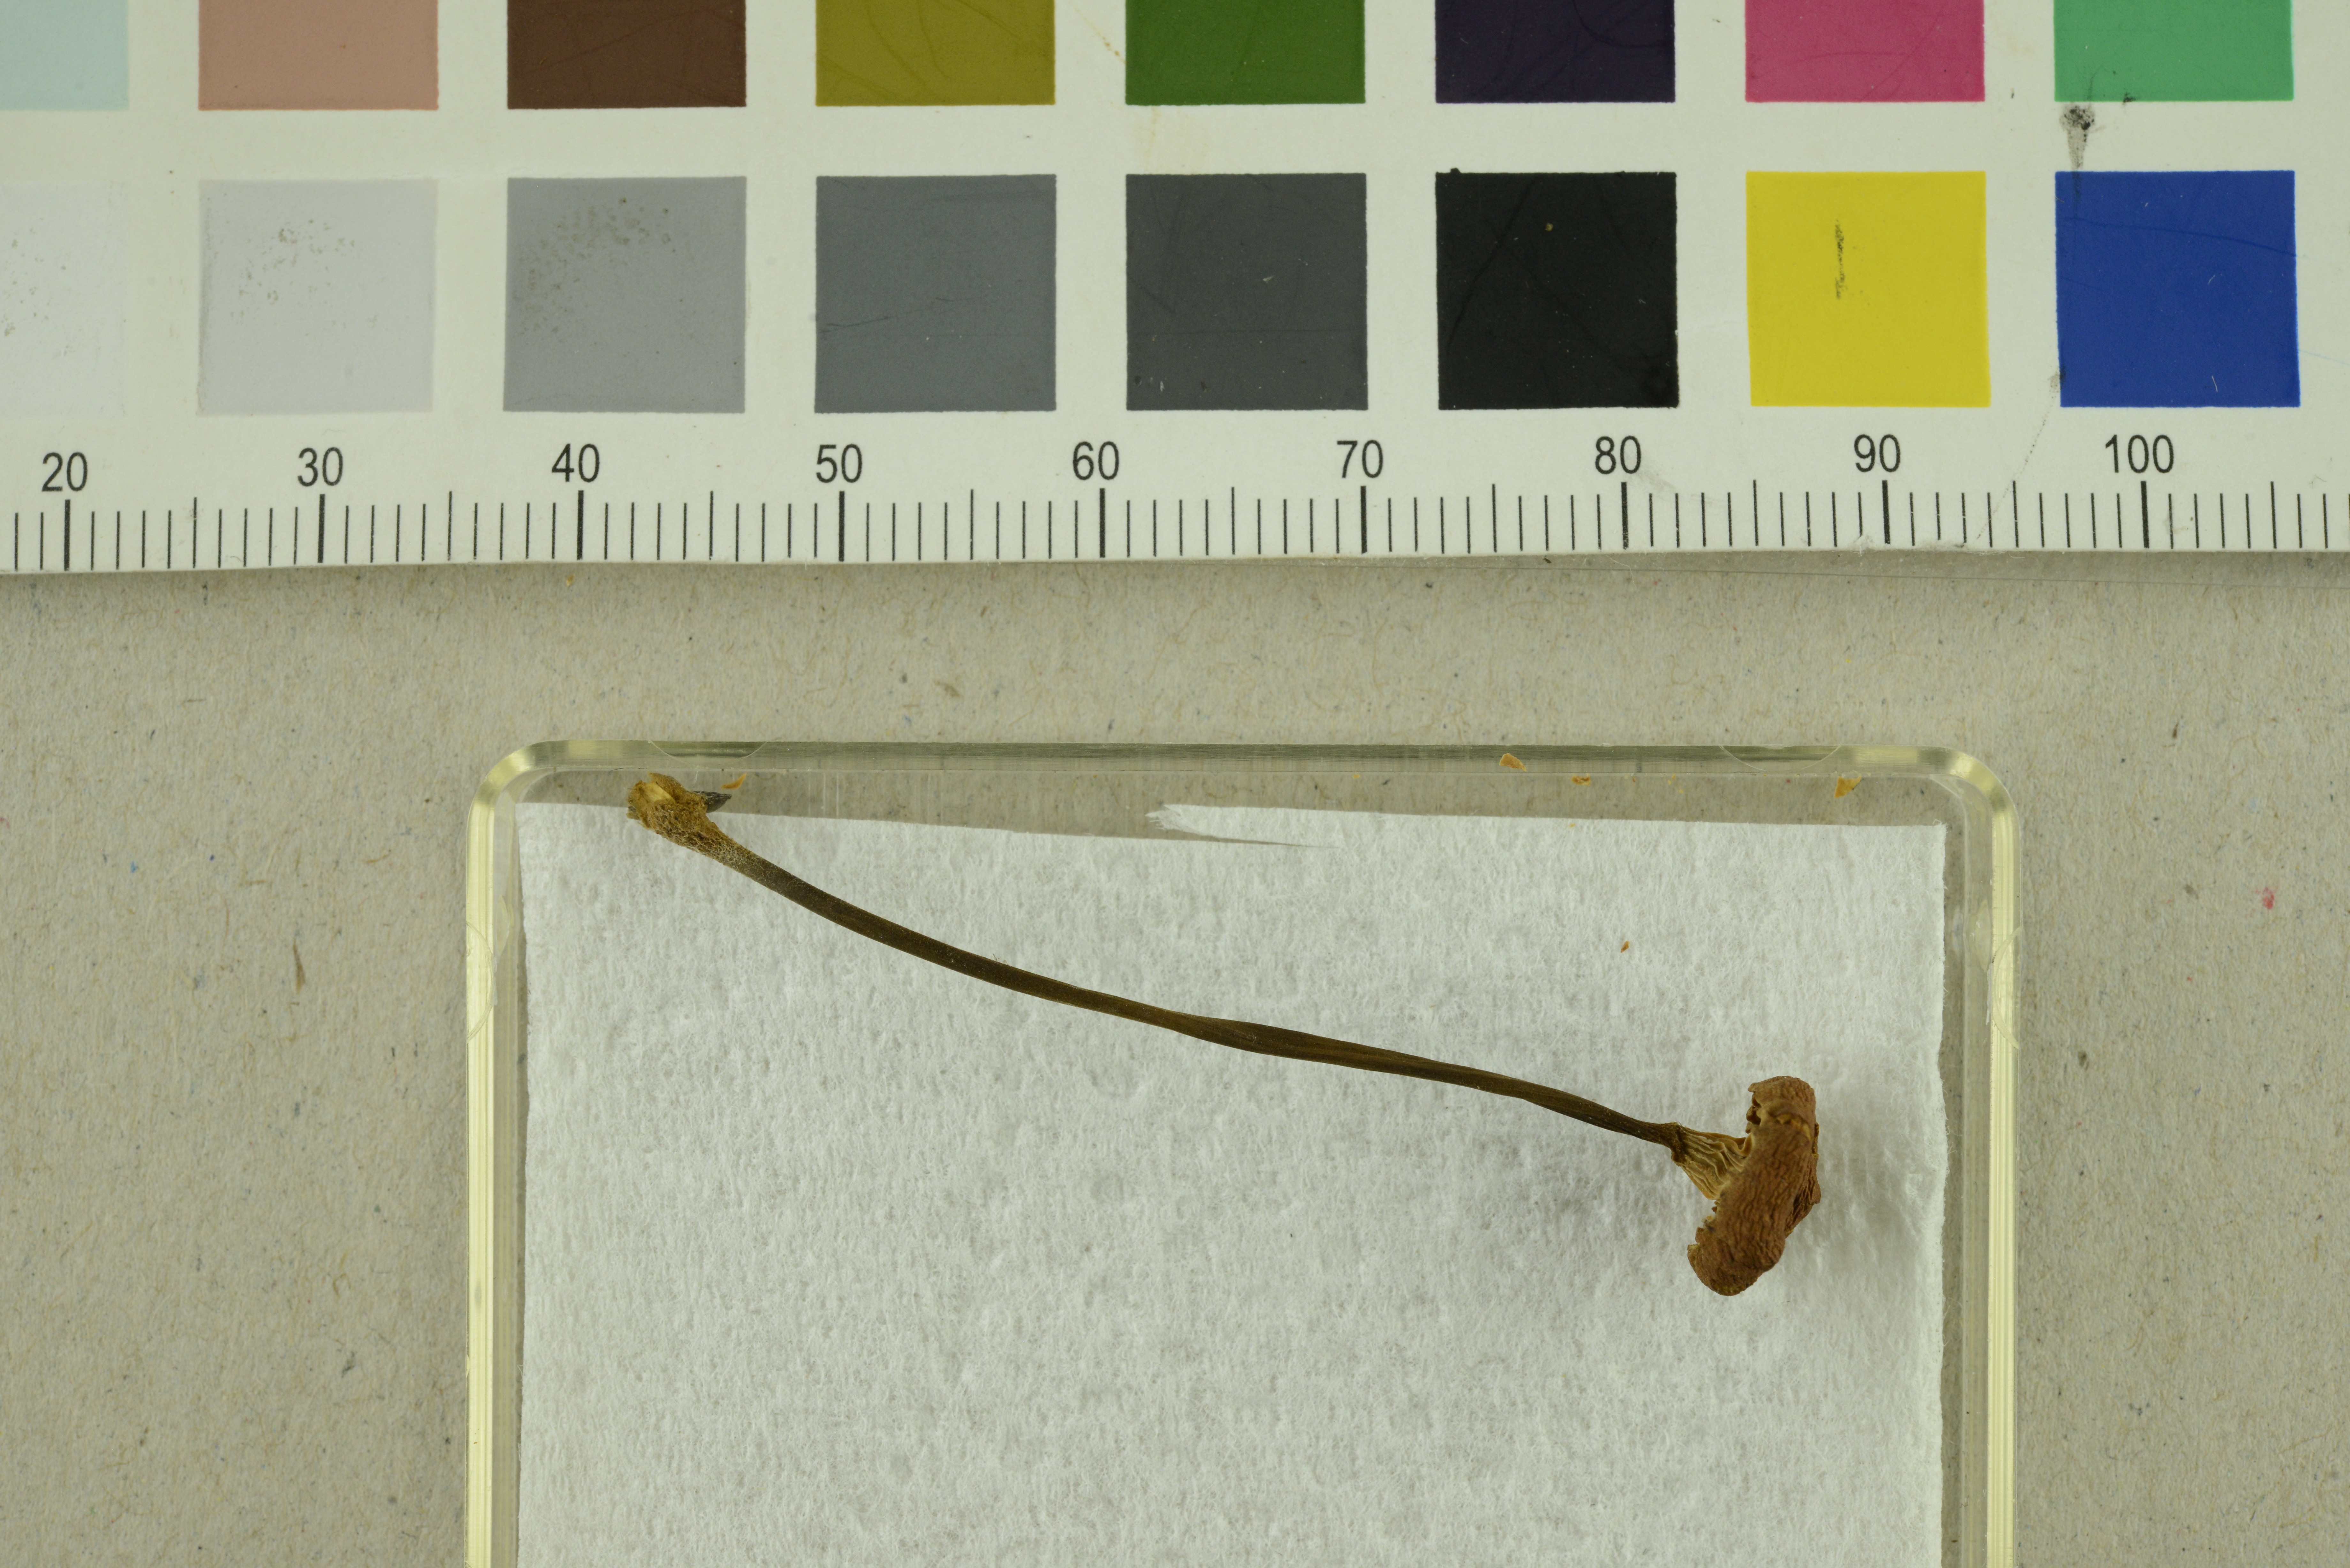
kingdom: Fungi
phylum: Basidiomycota
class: Agaricomycetes
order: Agaricales
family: Mycenaceae
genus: Xeromphalina
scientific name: Xeromphalina cornui
